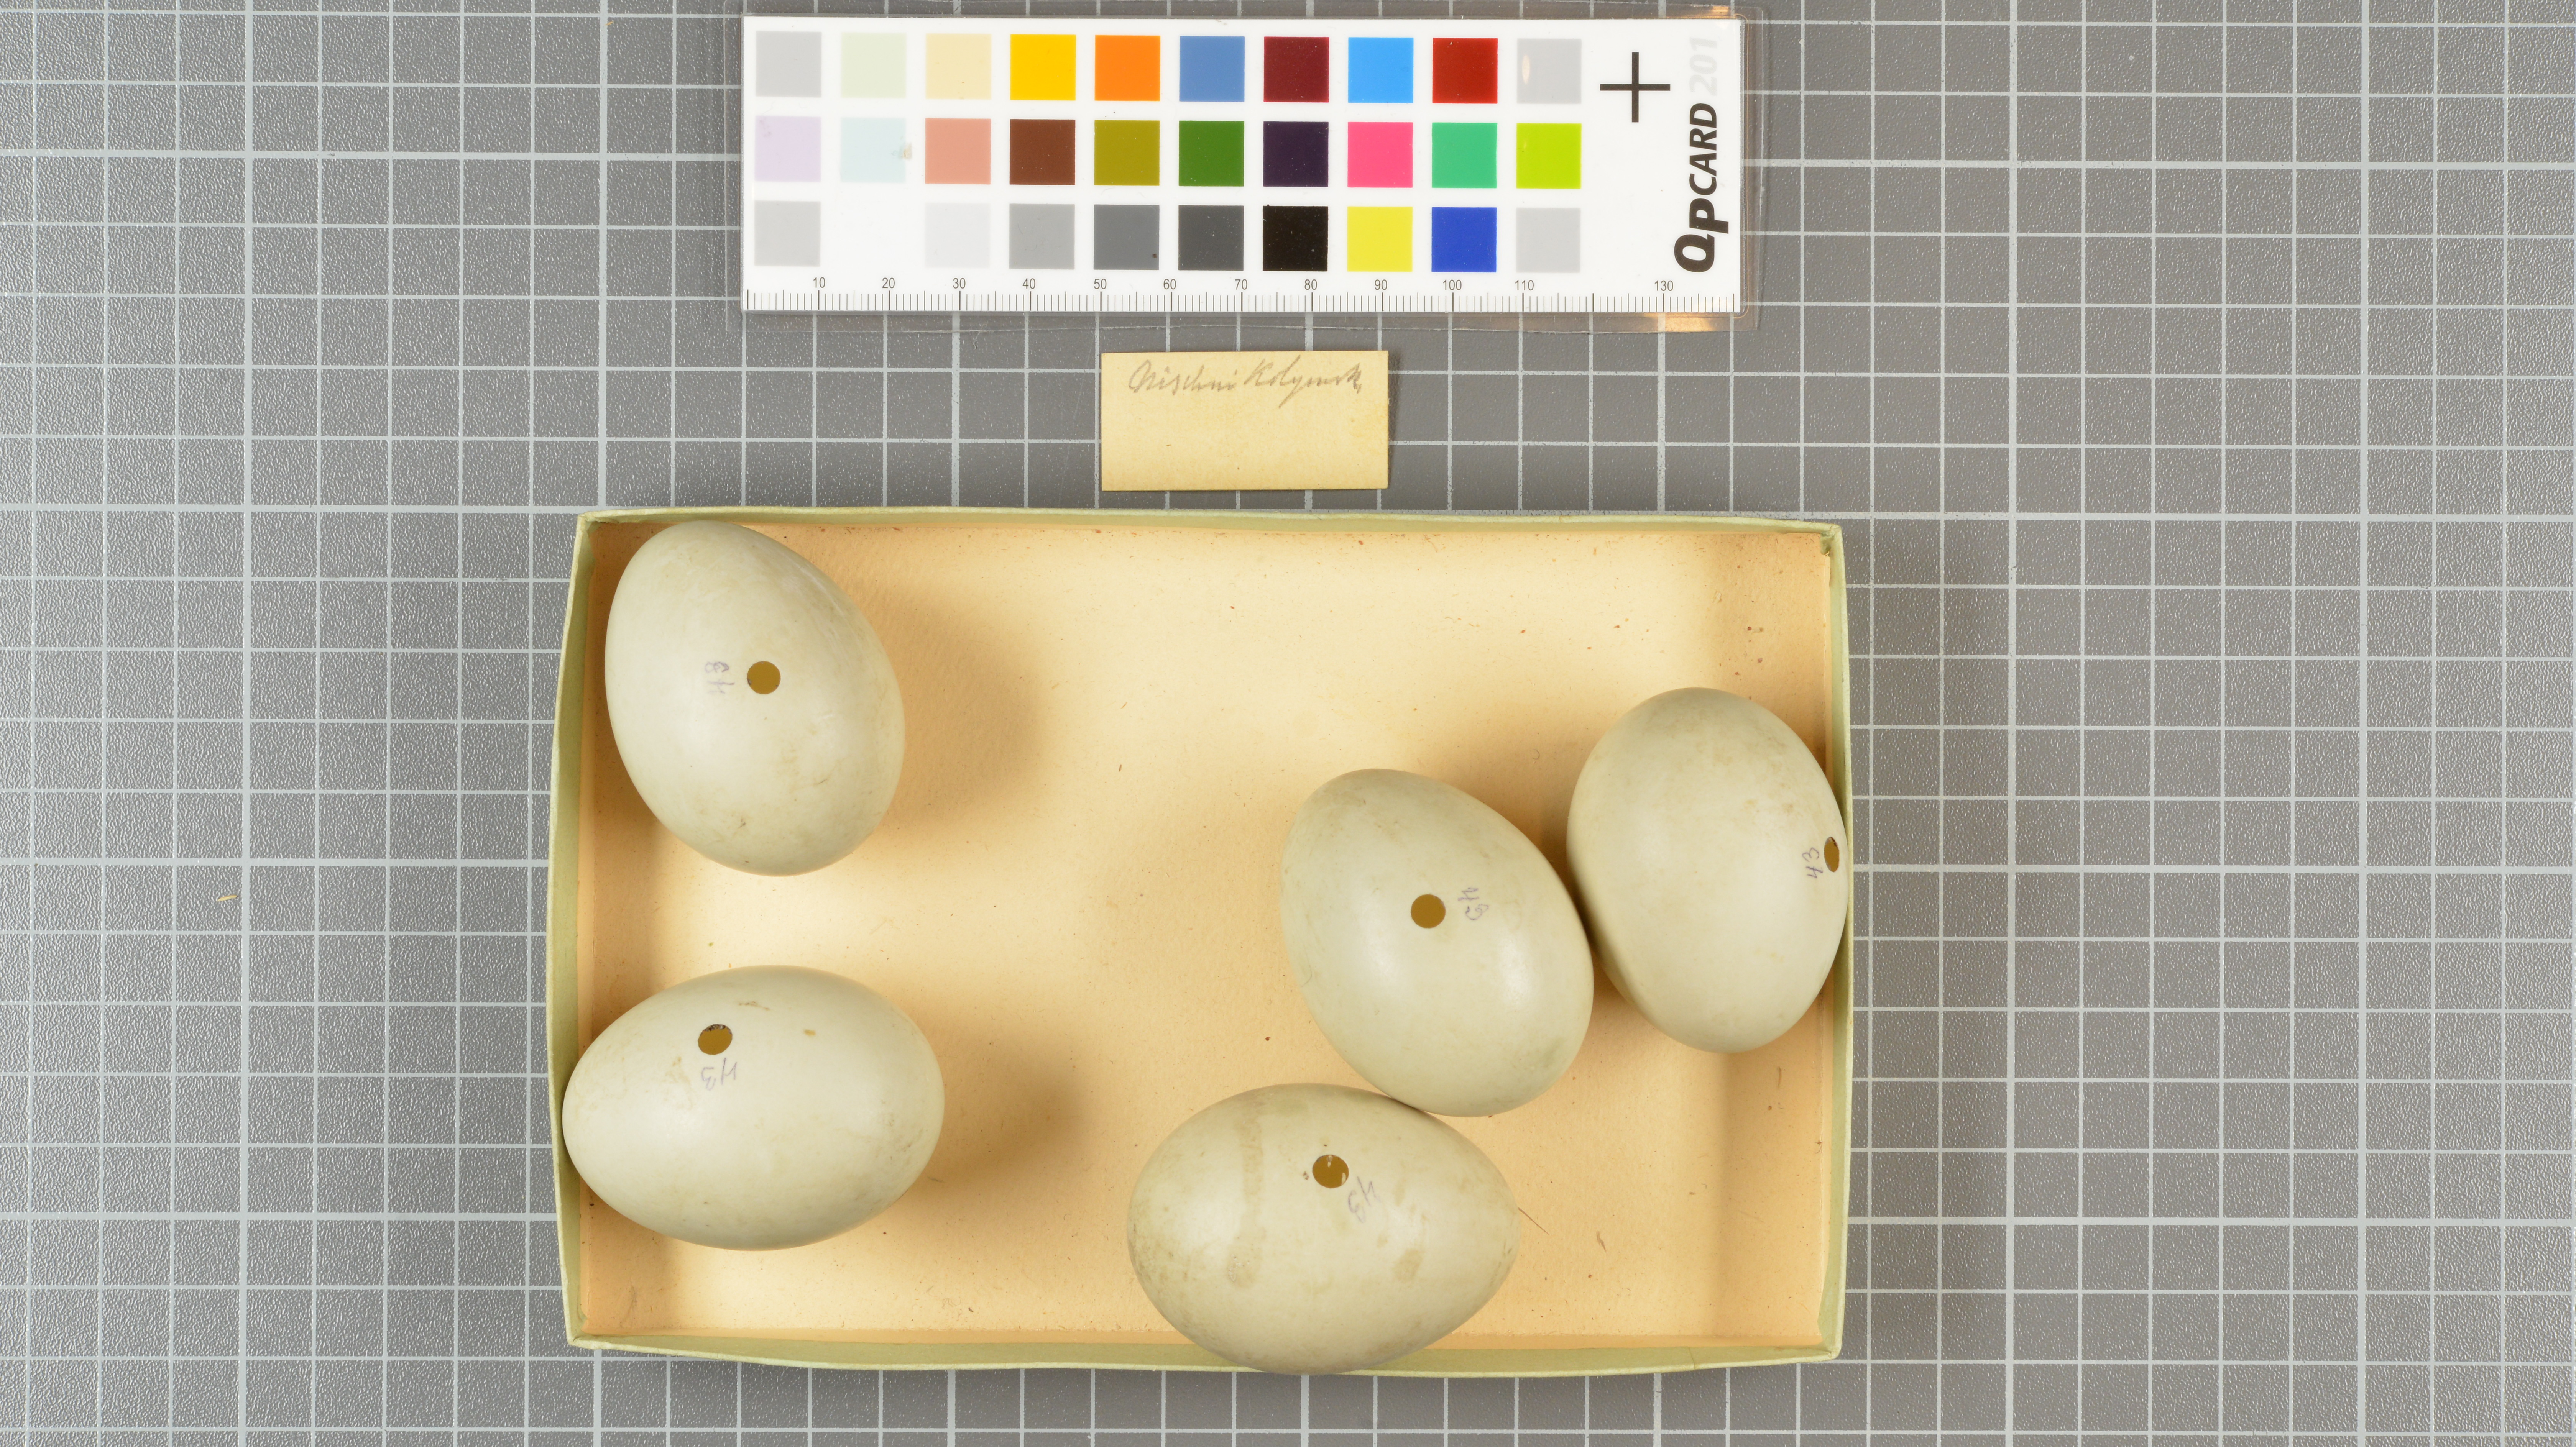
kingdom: Animalia
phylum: Chordata
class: Aves
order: Anseriformes
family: Anatidae
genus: Anas
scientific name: Anas acuta
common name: Northern pintail
